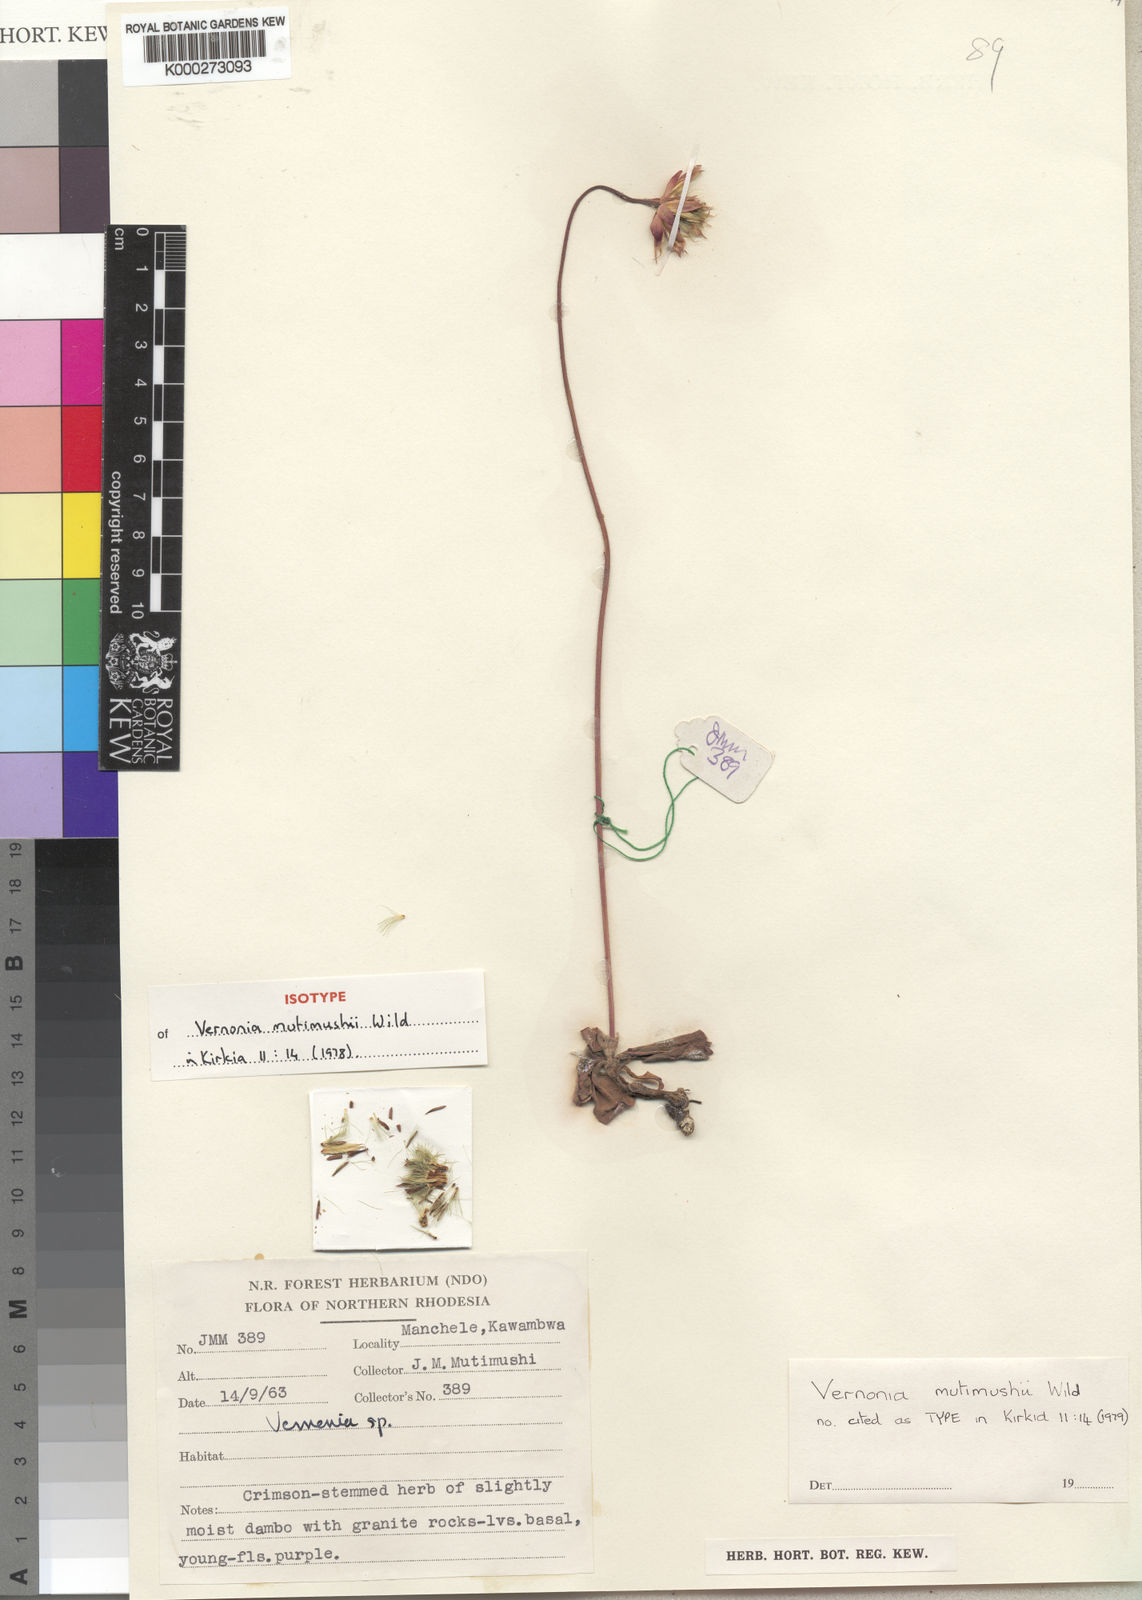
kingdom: Plantae
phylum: Tracheophyta
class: Magnoliopsida
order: Asterales
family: Asteraceae
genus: Vernonia
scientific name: Vernonia mutimushii
